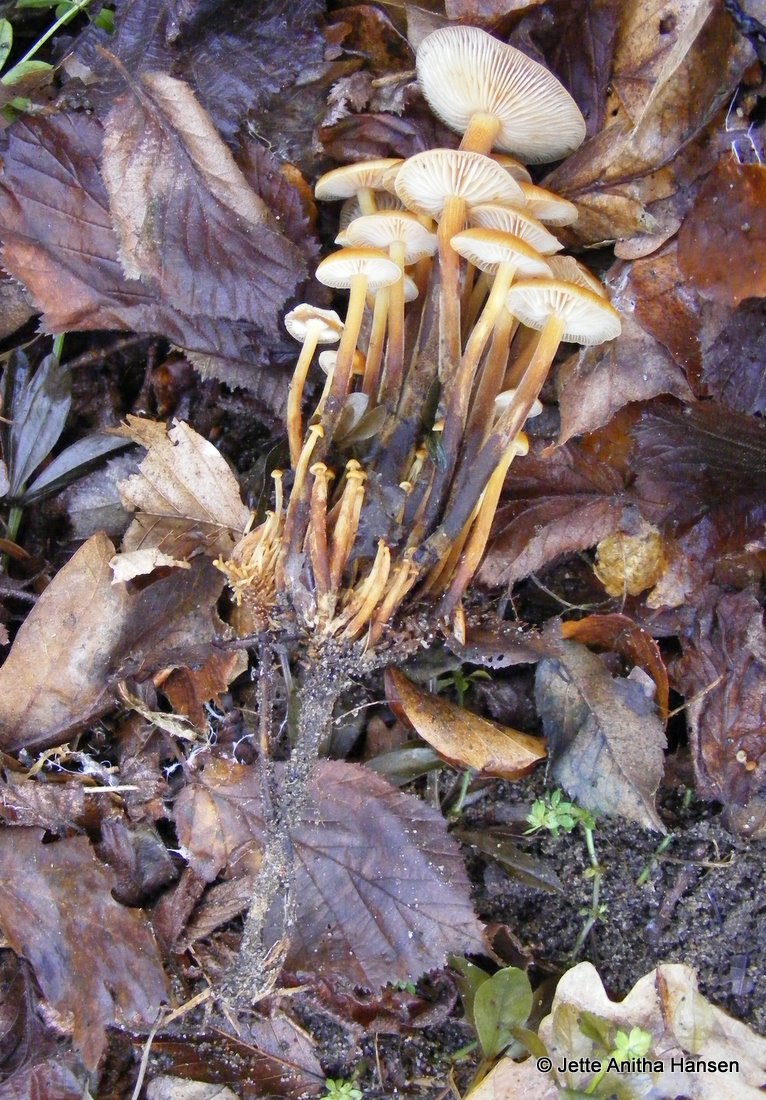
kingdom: Fungi
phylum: Basidiomycota
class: Agaricomycetes
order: Agaricales
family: Physalacriaceae
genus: Flammulina
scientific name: Flammulina velutipes
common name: gul fløjlsfod
